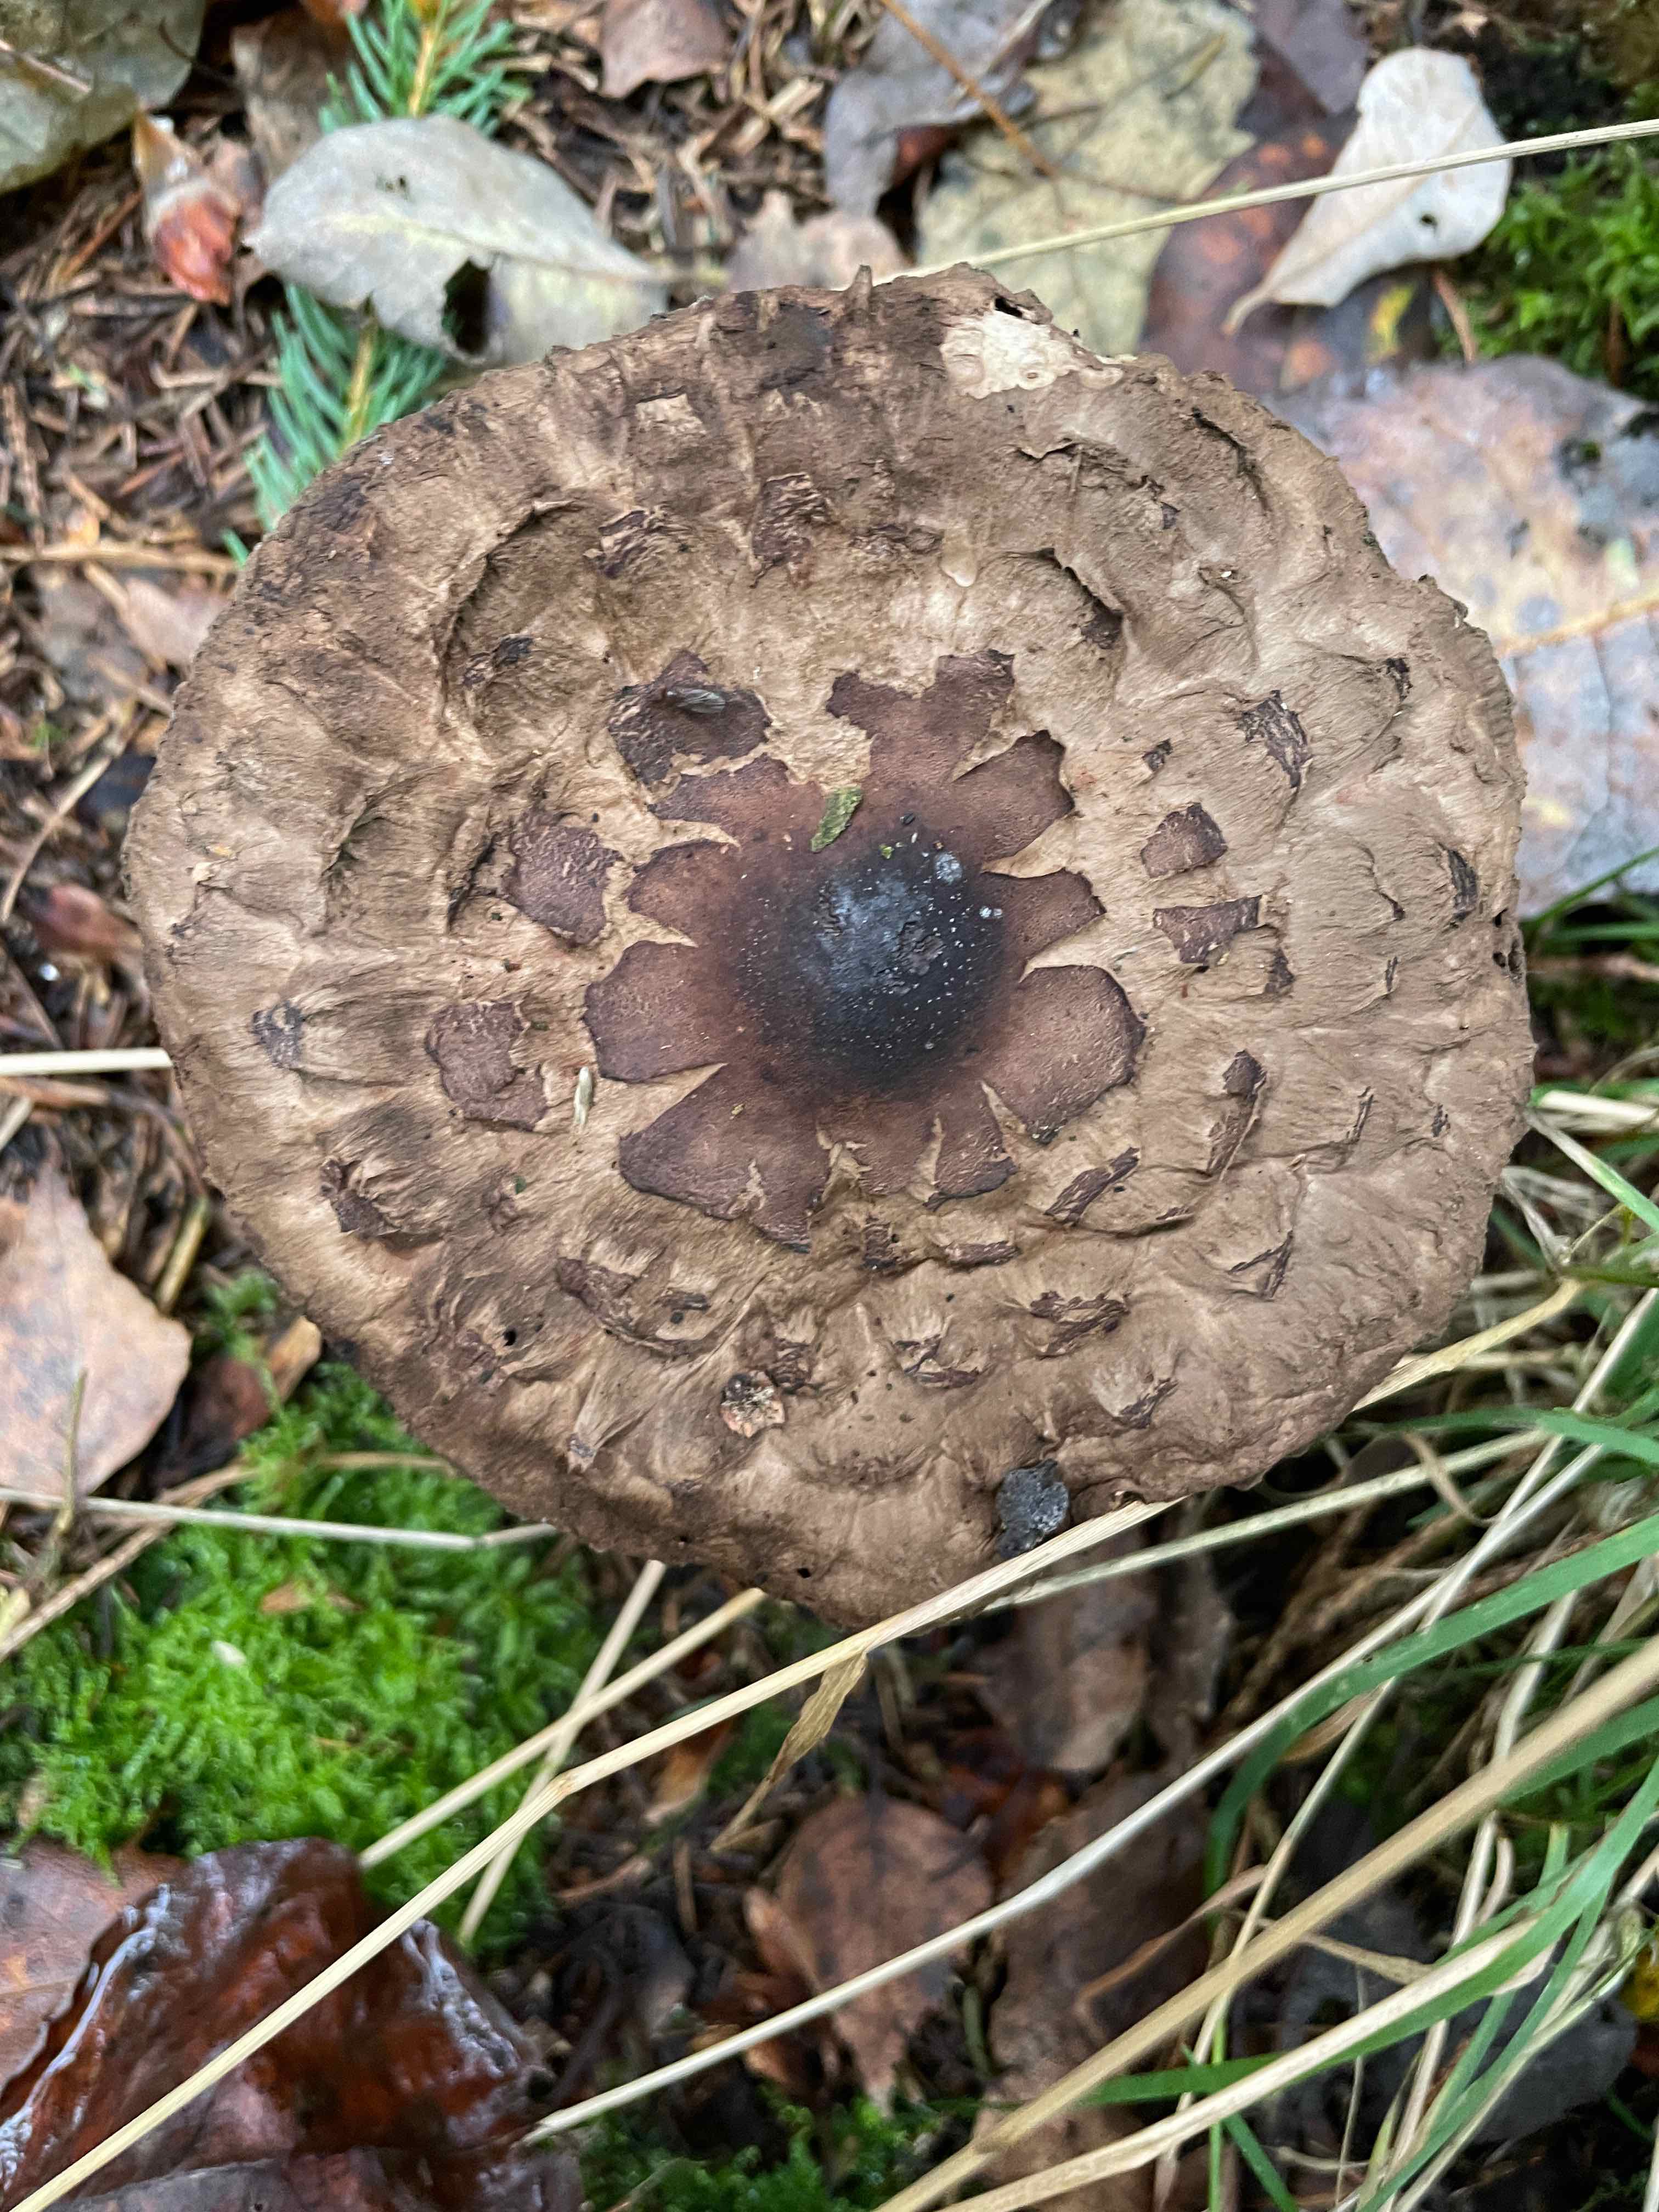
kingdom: Fungi
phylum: Basidiomycota
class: Agaricomycetes
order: Agaricales
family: Agaricaceae
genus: Chlorophyllum
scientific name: Chlorophyllum
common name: rabarberhat
